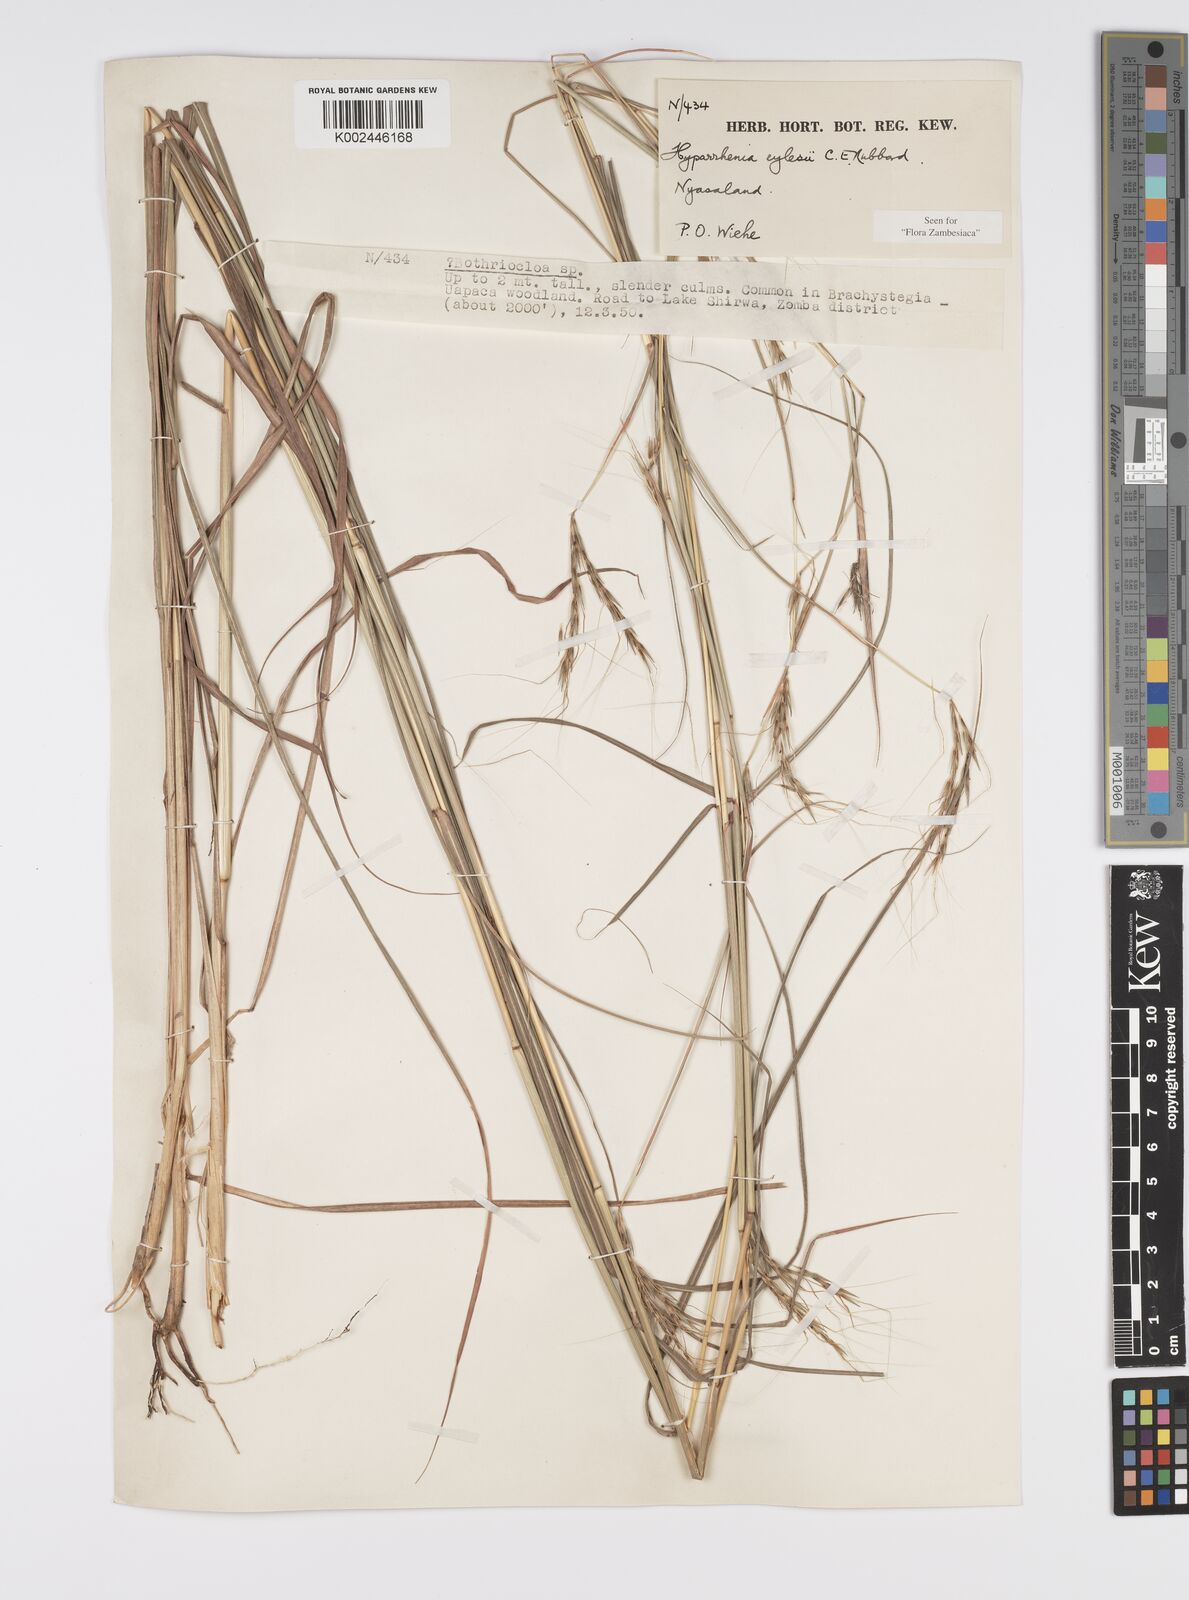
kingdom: Plantae
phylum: Tracheophyta
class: Liliopsida
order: Poales
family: Poaceae
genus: Elymandra
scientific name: Elymandra grallata
